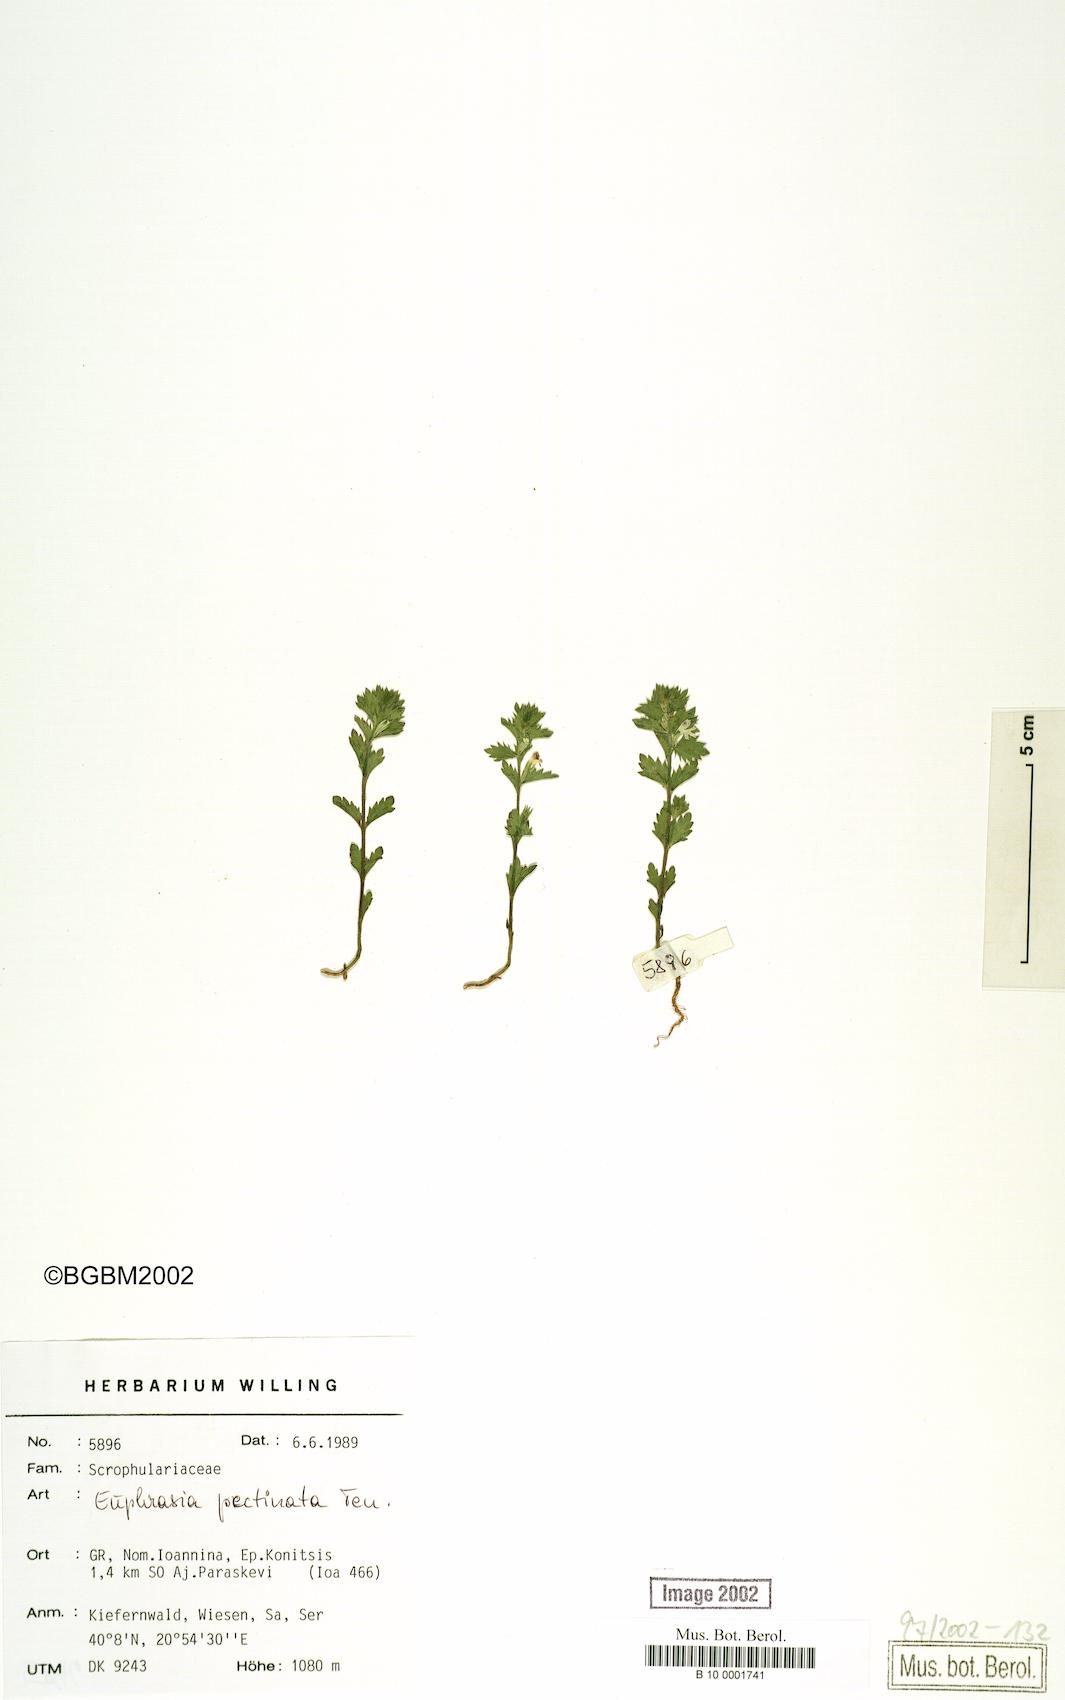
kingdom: Plantae
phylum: Tracheophyta
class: Magnoliopsida
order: Lamiales
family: Orobanchaceae
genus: Euphrasia
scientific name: Euphrasia pectinata
